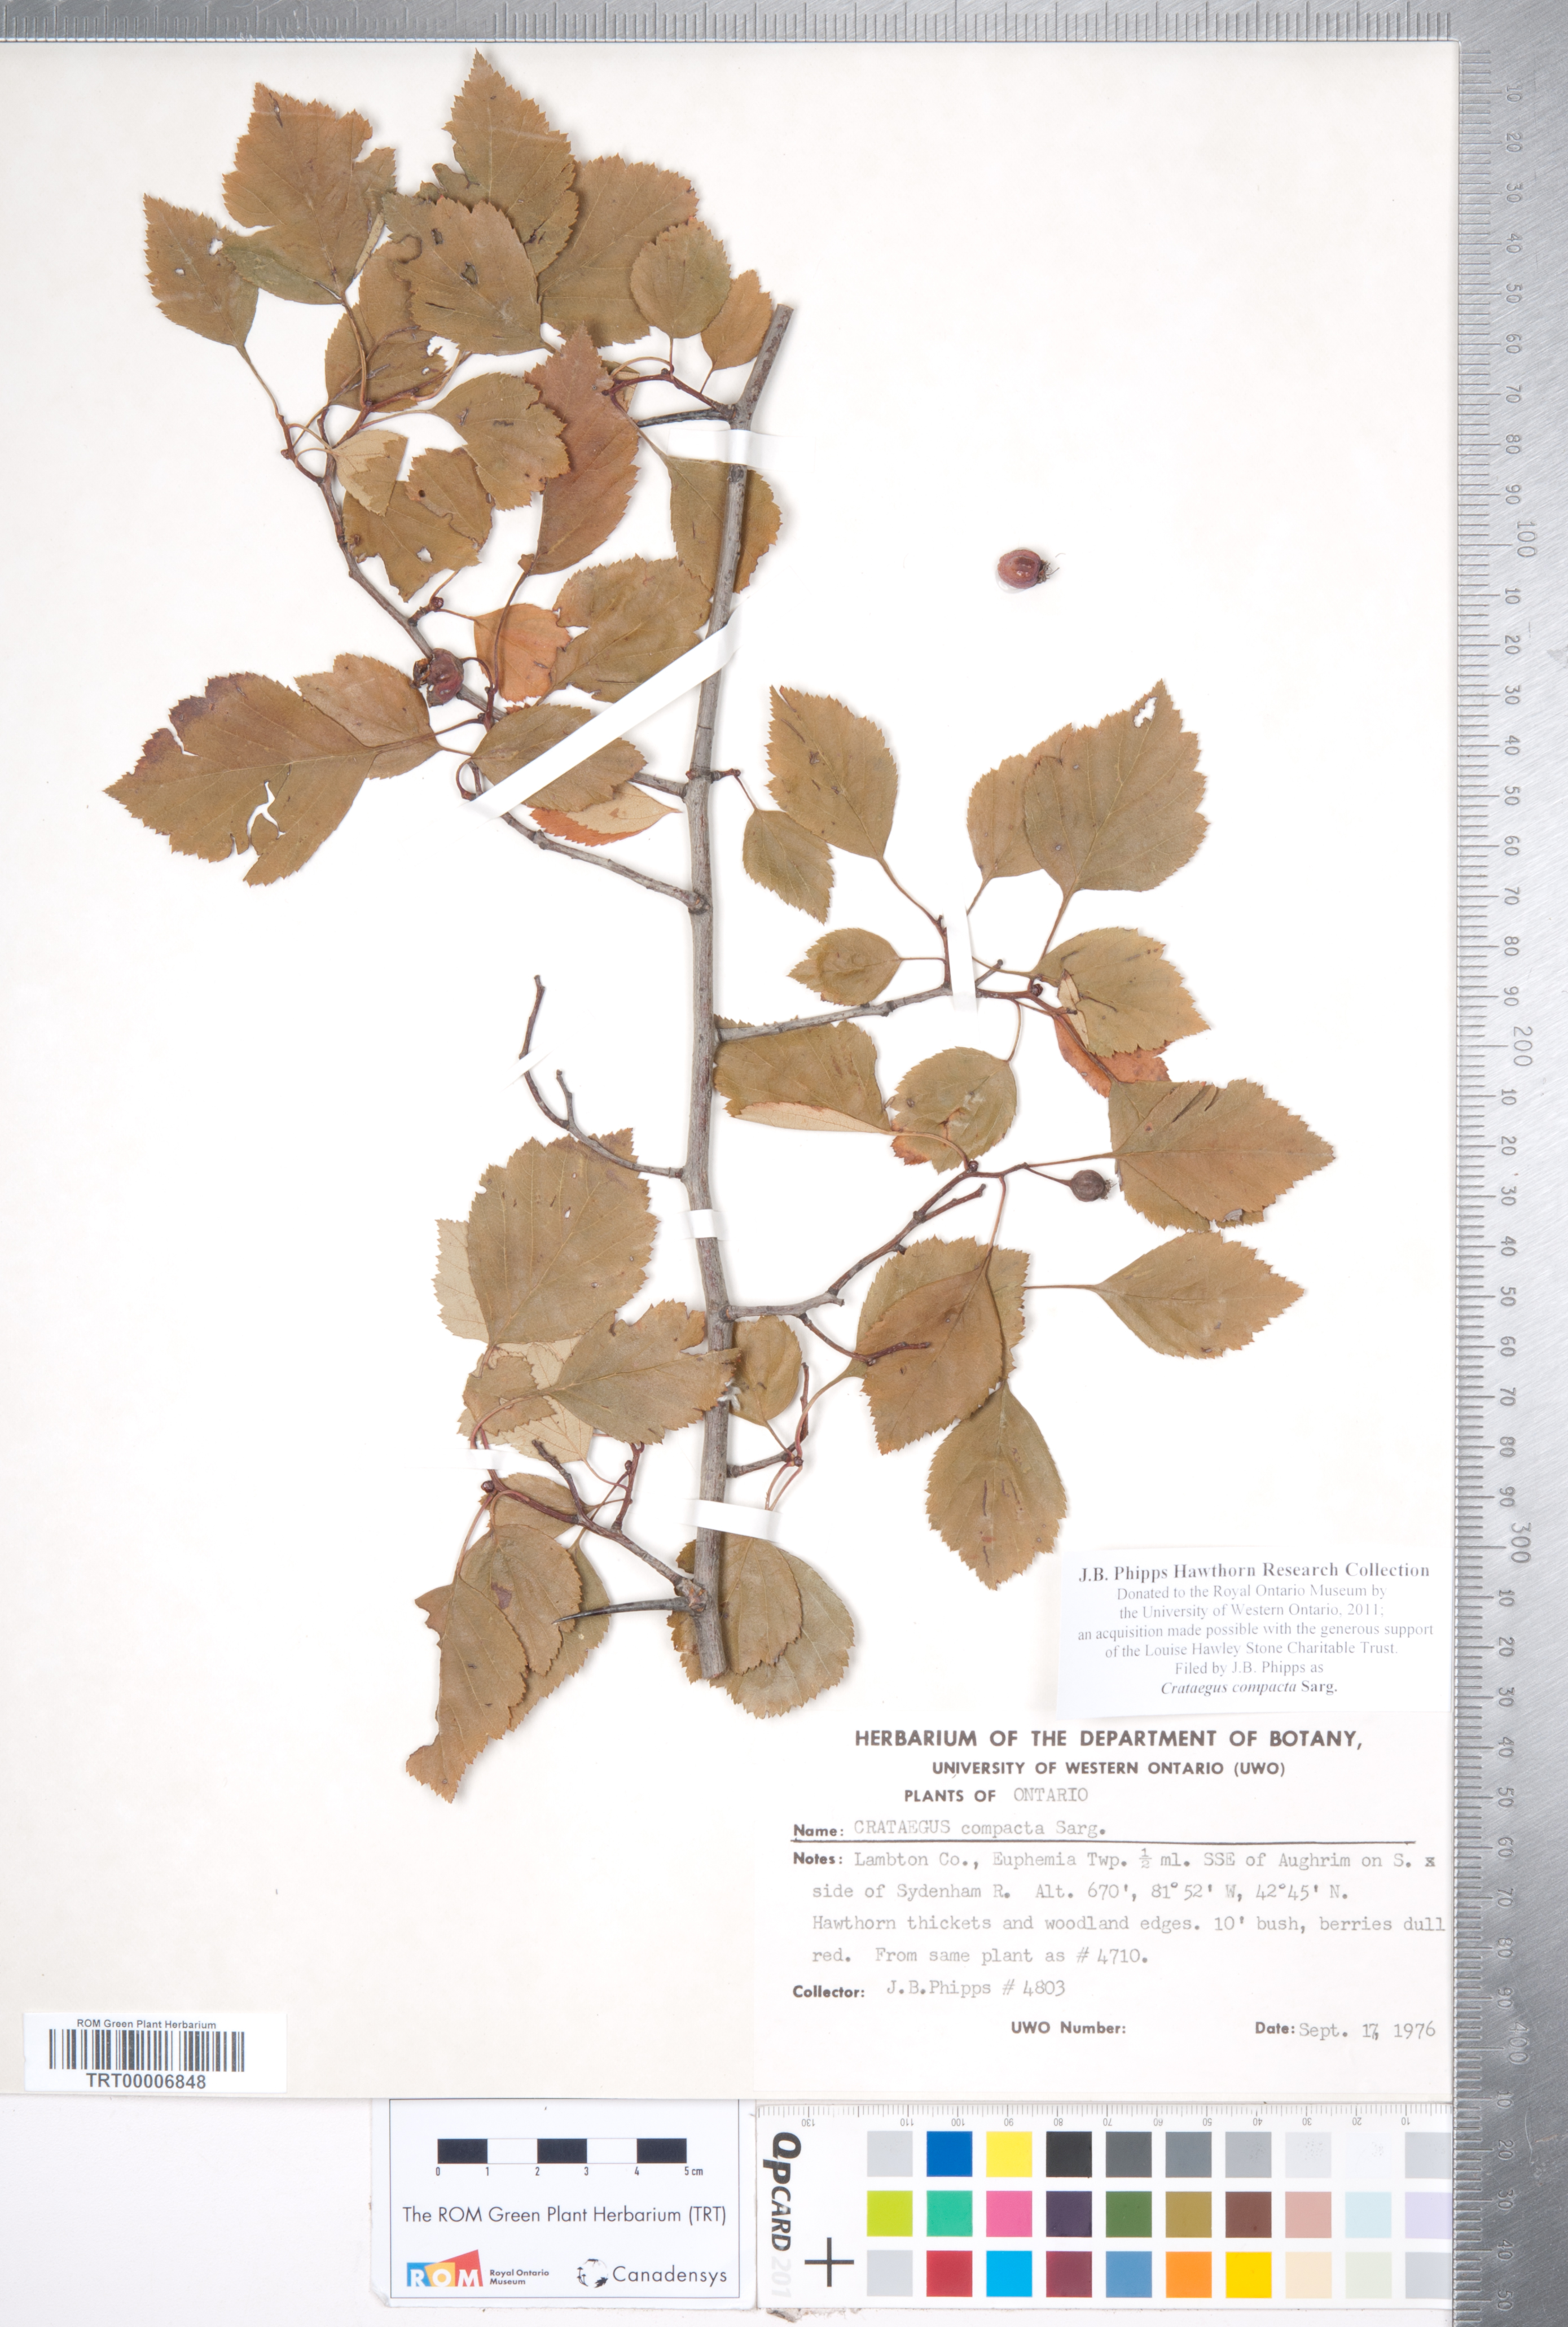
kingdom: Plantae
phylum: Tracheophyta
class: Magnoliopsida
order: Rosales
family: Rosaceae
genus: Crataegus
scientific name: Crataegus compacta
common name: Clustered hawthorn
